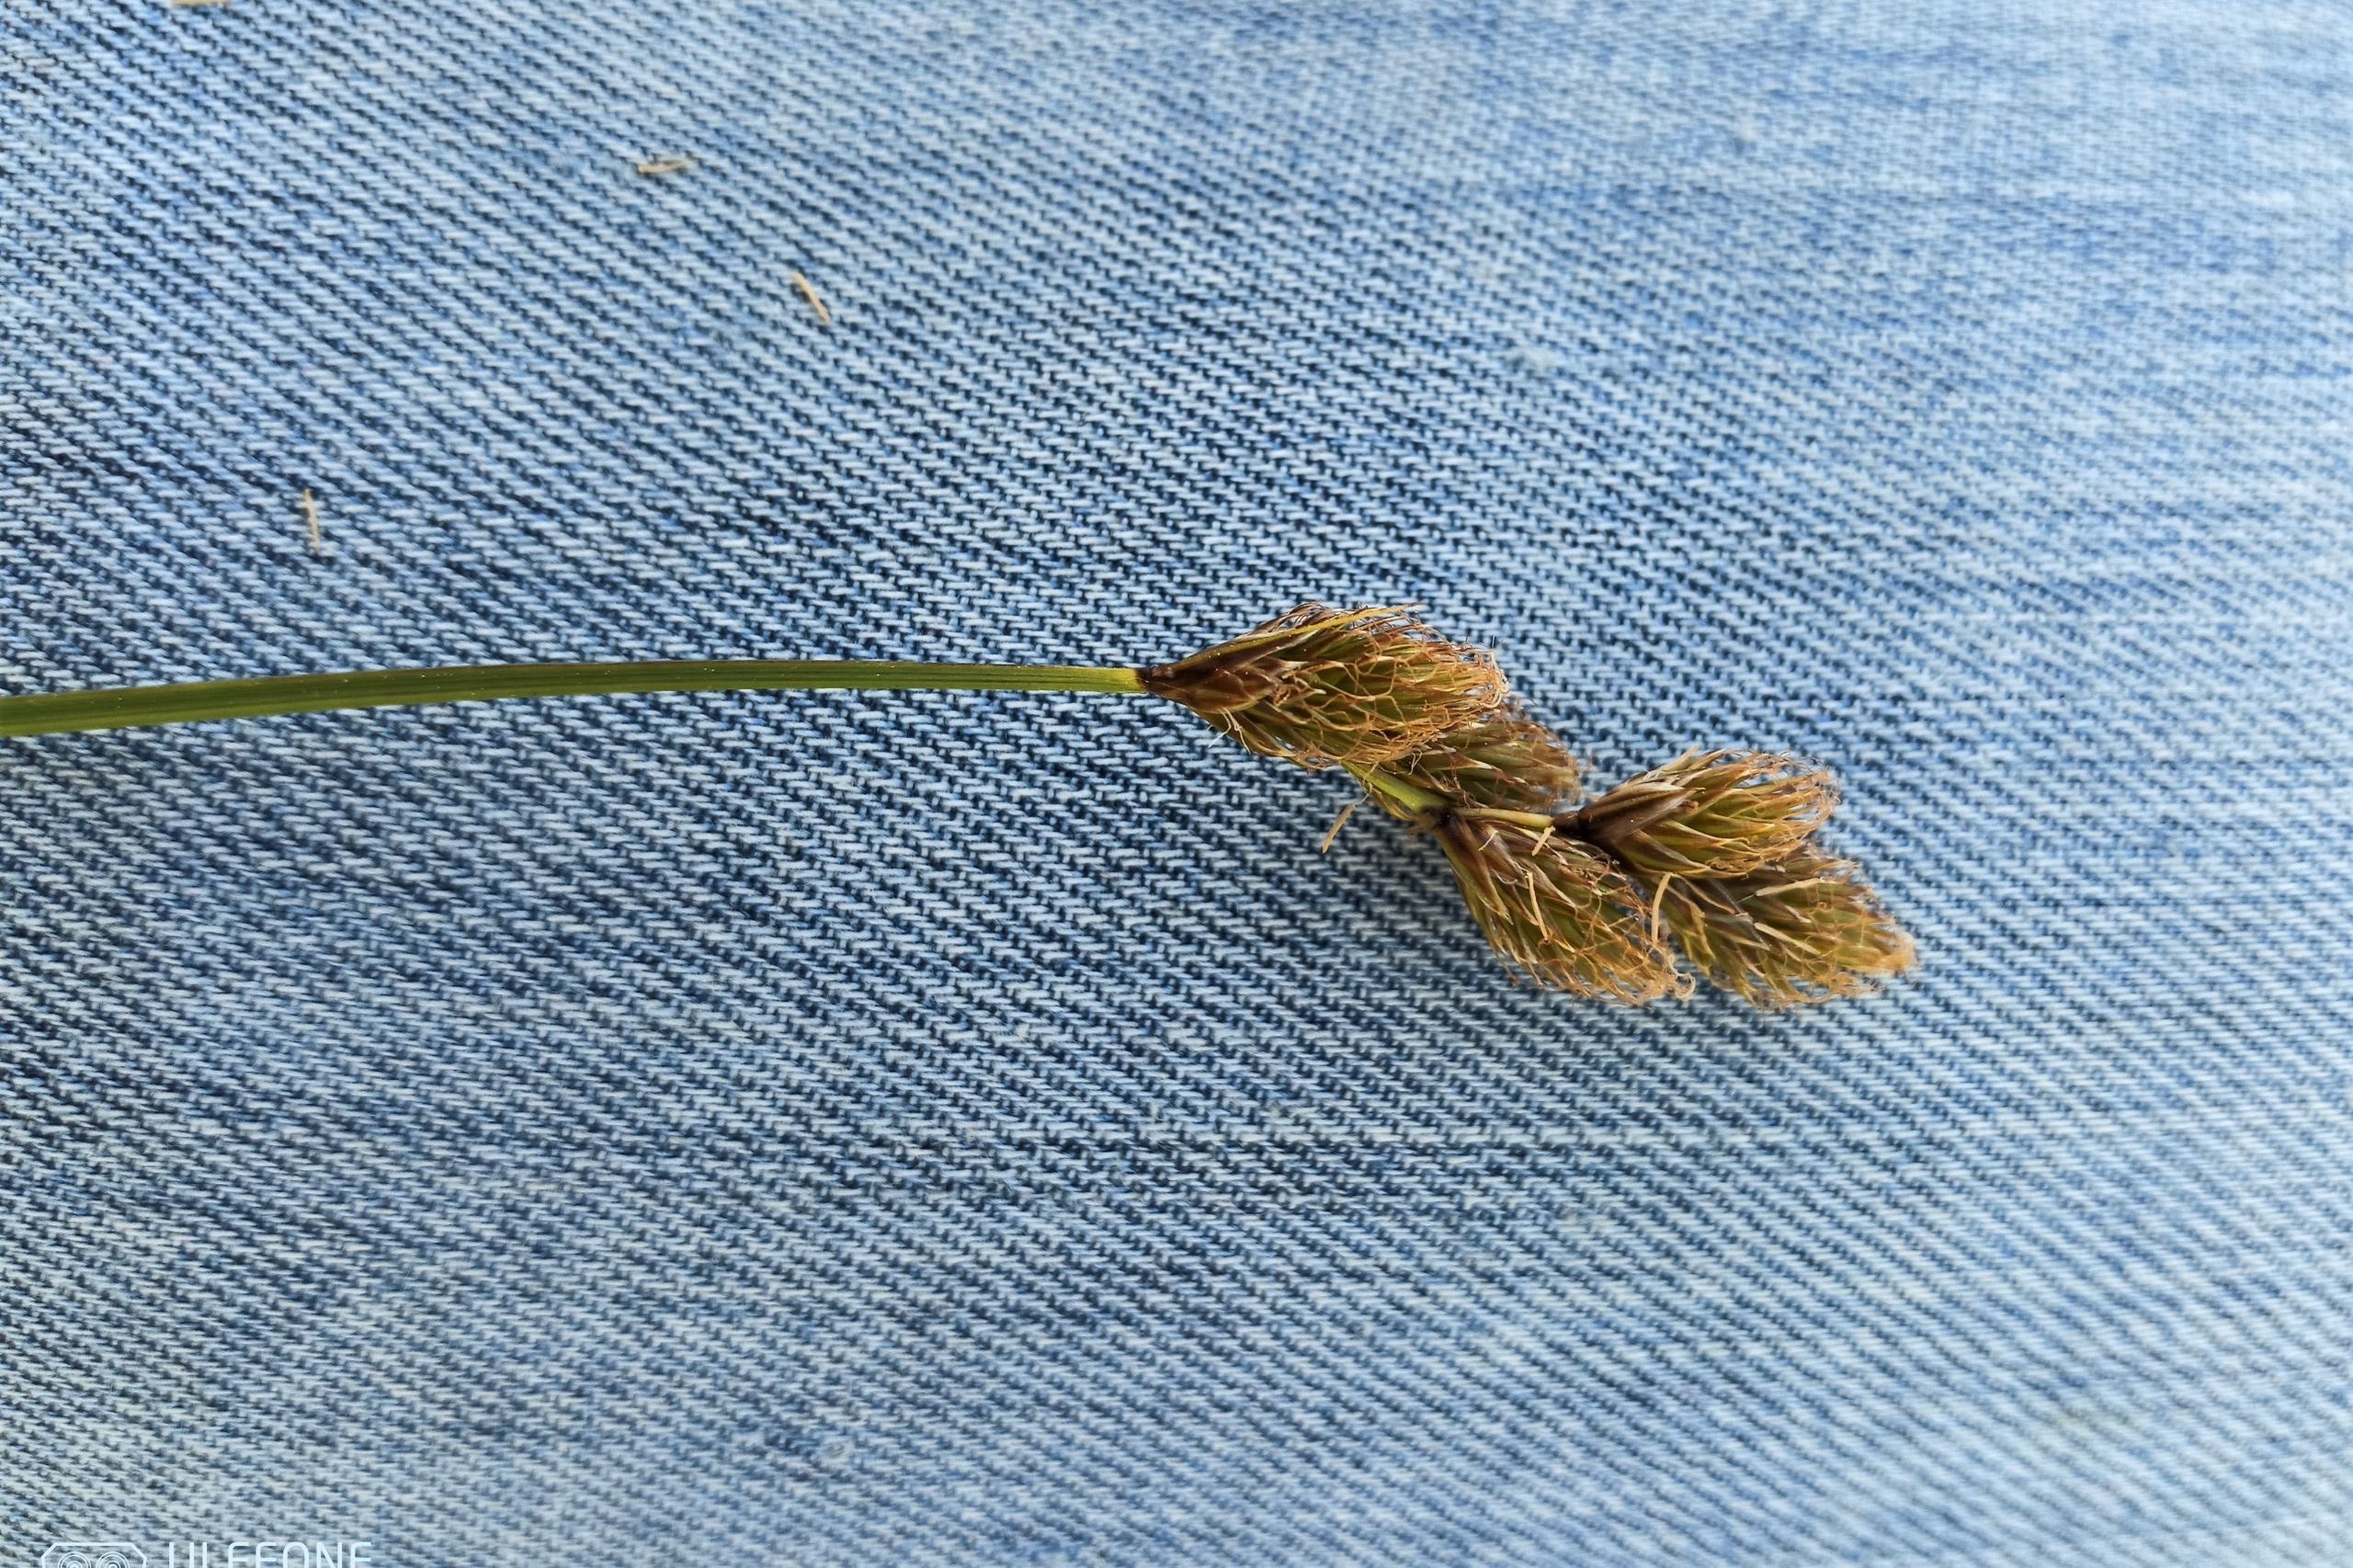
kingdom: Plantae
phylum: Tracheophyta
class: Liliopsida
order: Poales
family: Cyperaceae
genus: Carex
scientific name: Carex leporina
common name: Hare-star
